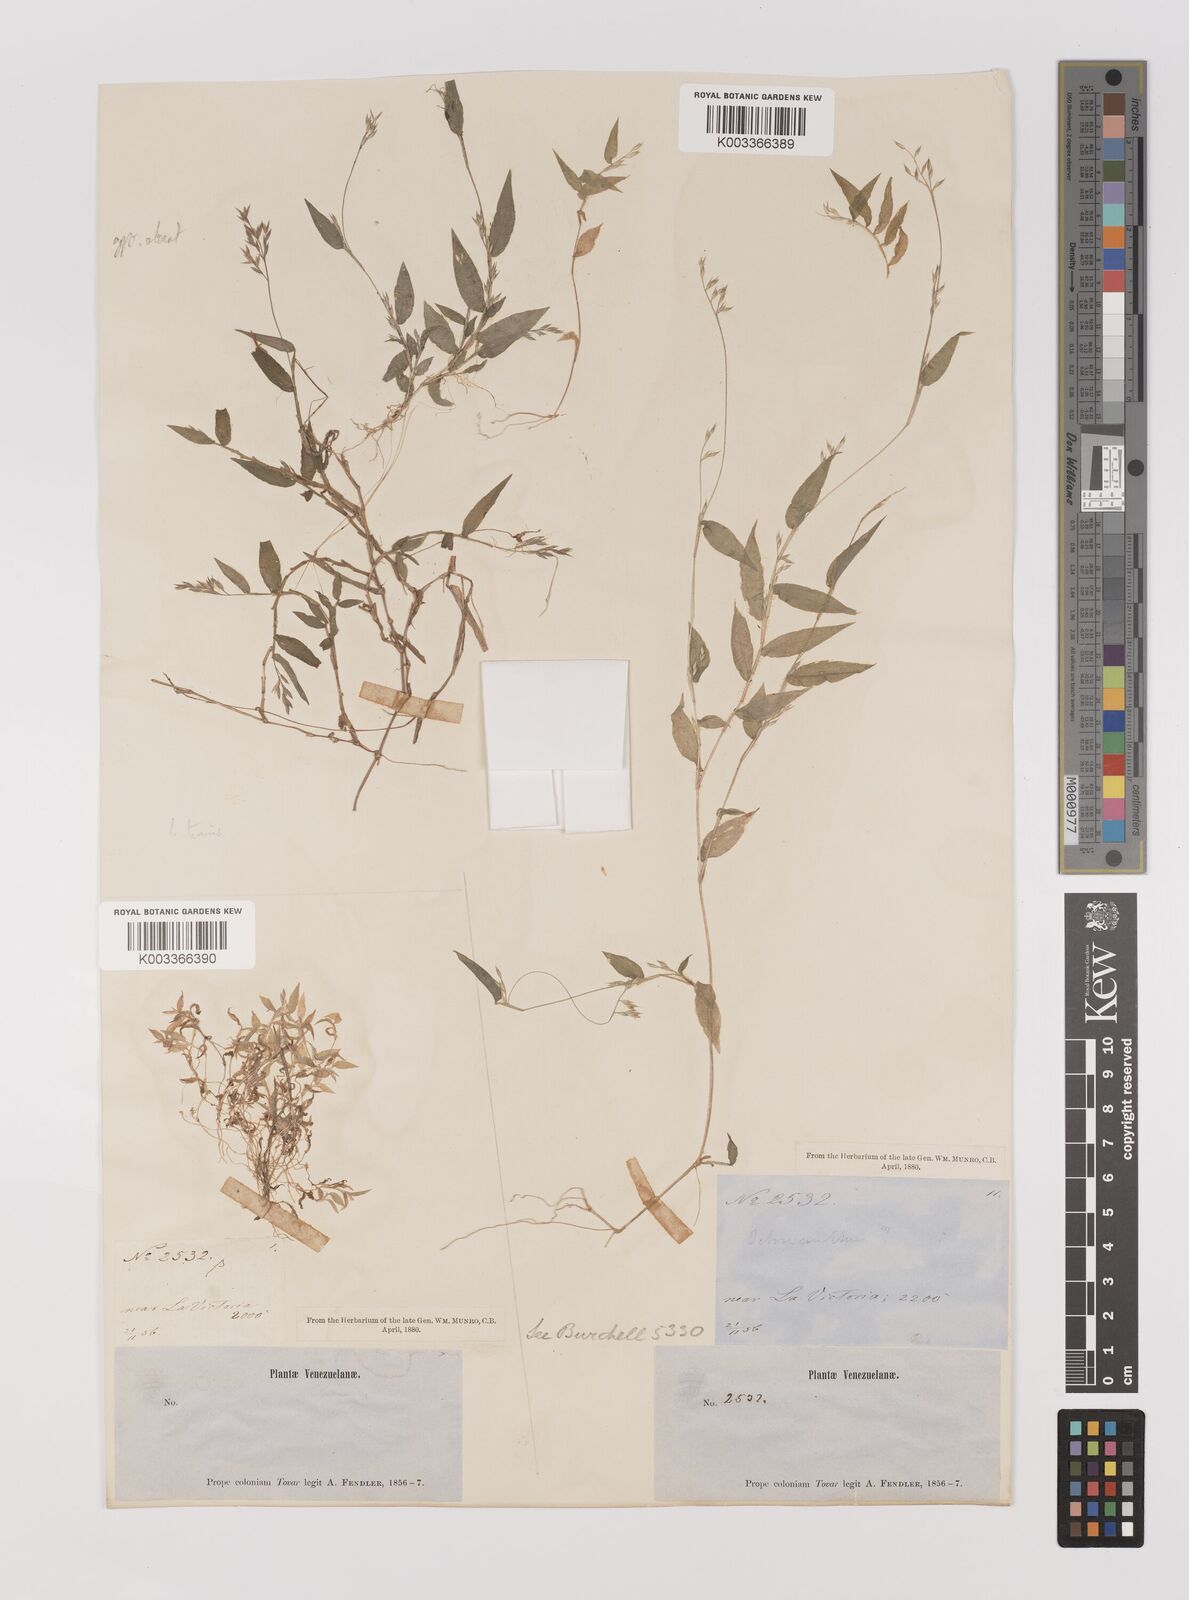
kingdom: Plantae
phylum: Tracheophyta
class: Liliopsida
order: Poales
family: Poaceae
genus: Ichnanthus
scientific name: Ichnanthus tenuis
